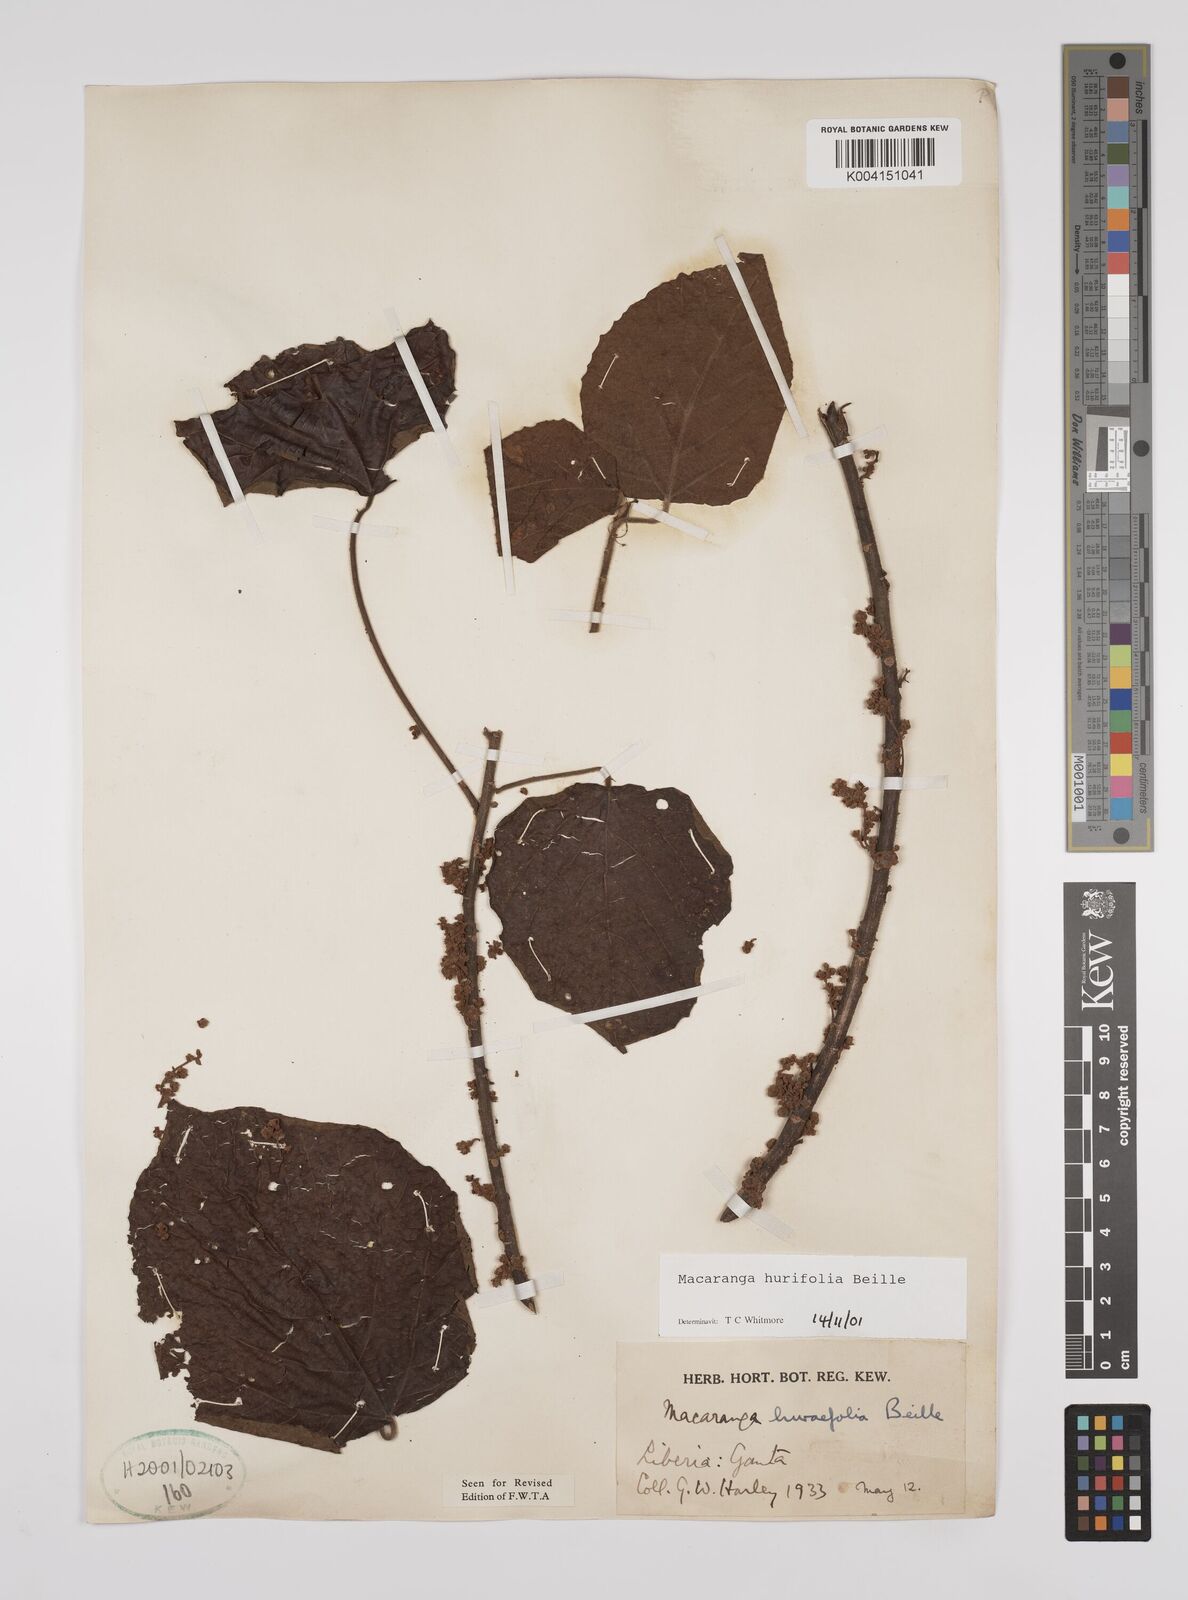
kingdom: Plantae
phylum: Tracheophyta
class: Magnoliopsida
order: Malpighiales
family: Euphorbiaceae
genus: Macaranga
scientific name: Macaranga hurifolia
